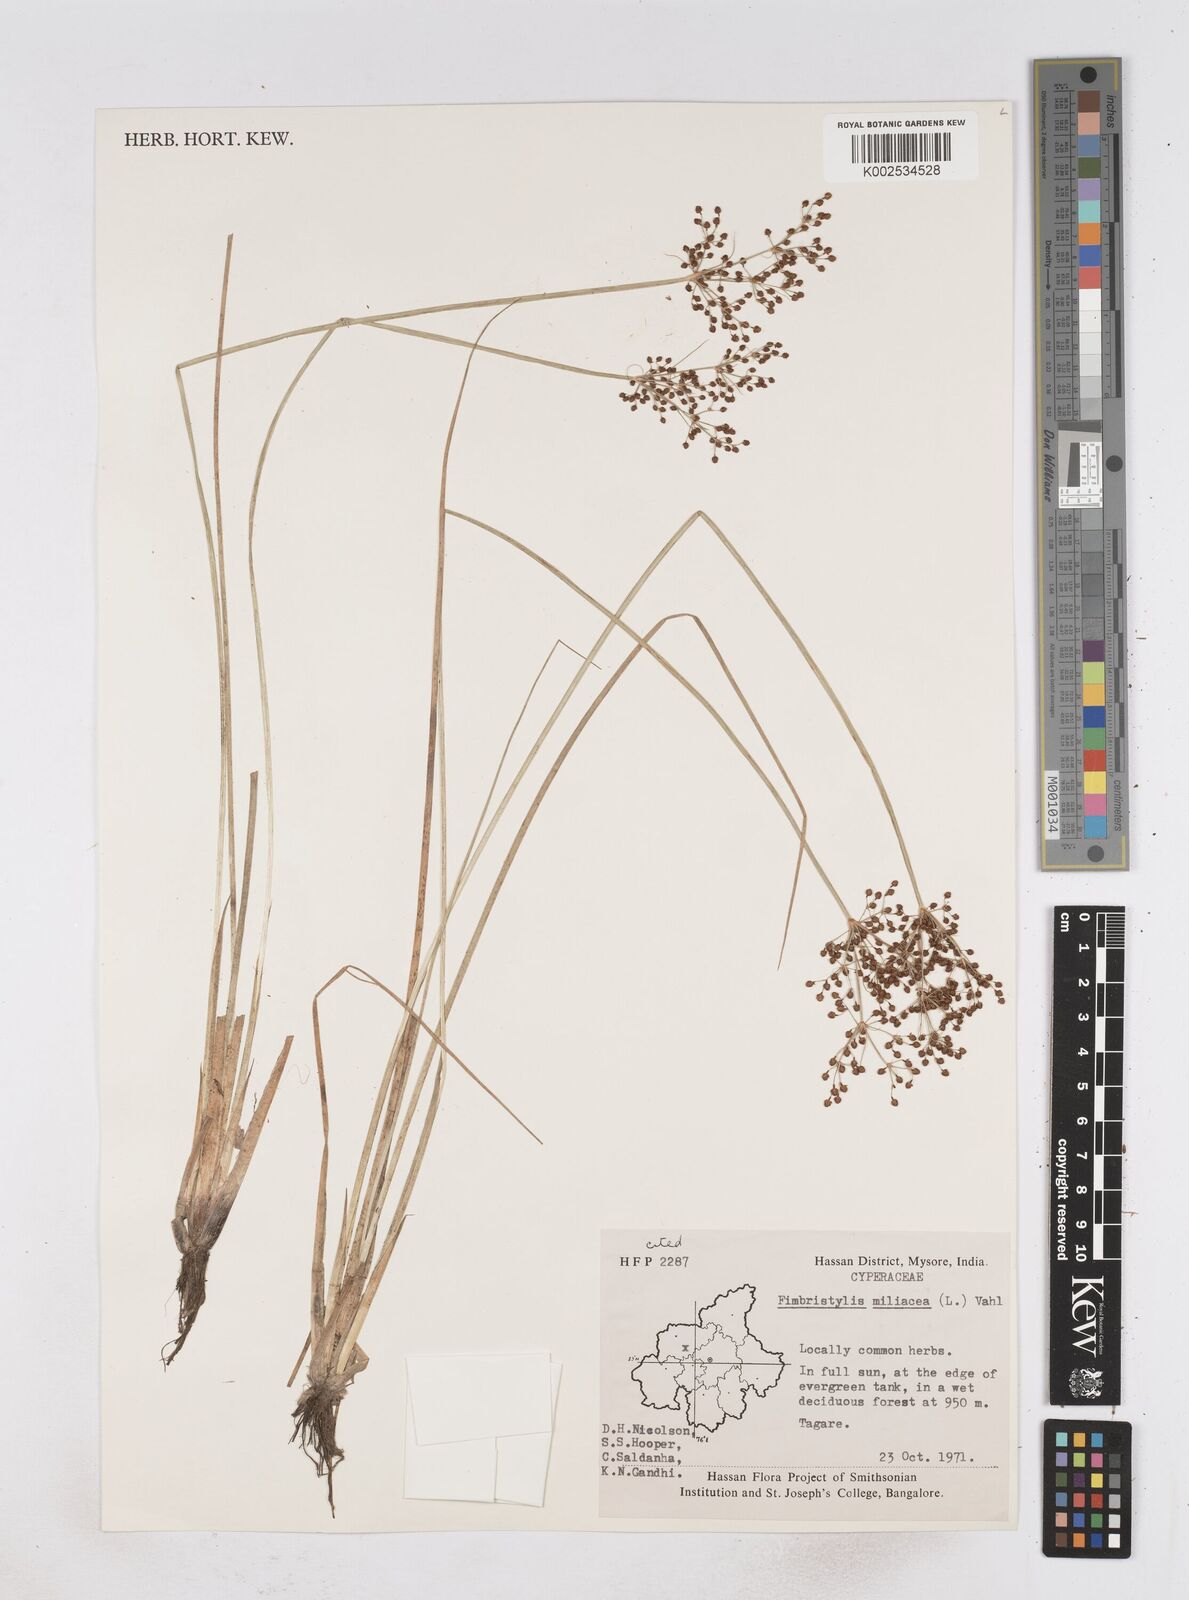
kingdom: Plantae
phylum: Tracheophyta
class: Liliopsida
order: Poales
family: Cyperaceae
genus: Fimbristylis
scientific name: Fimbristylis quinquangularis
